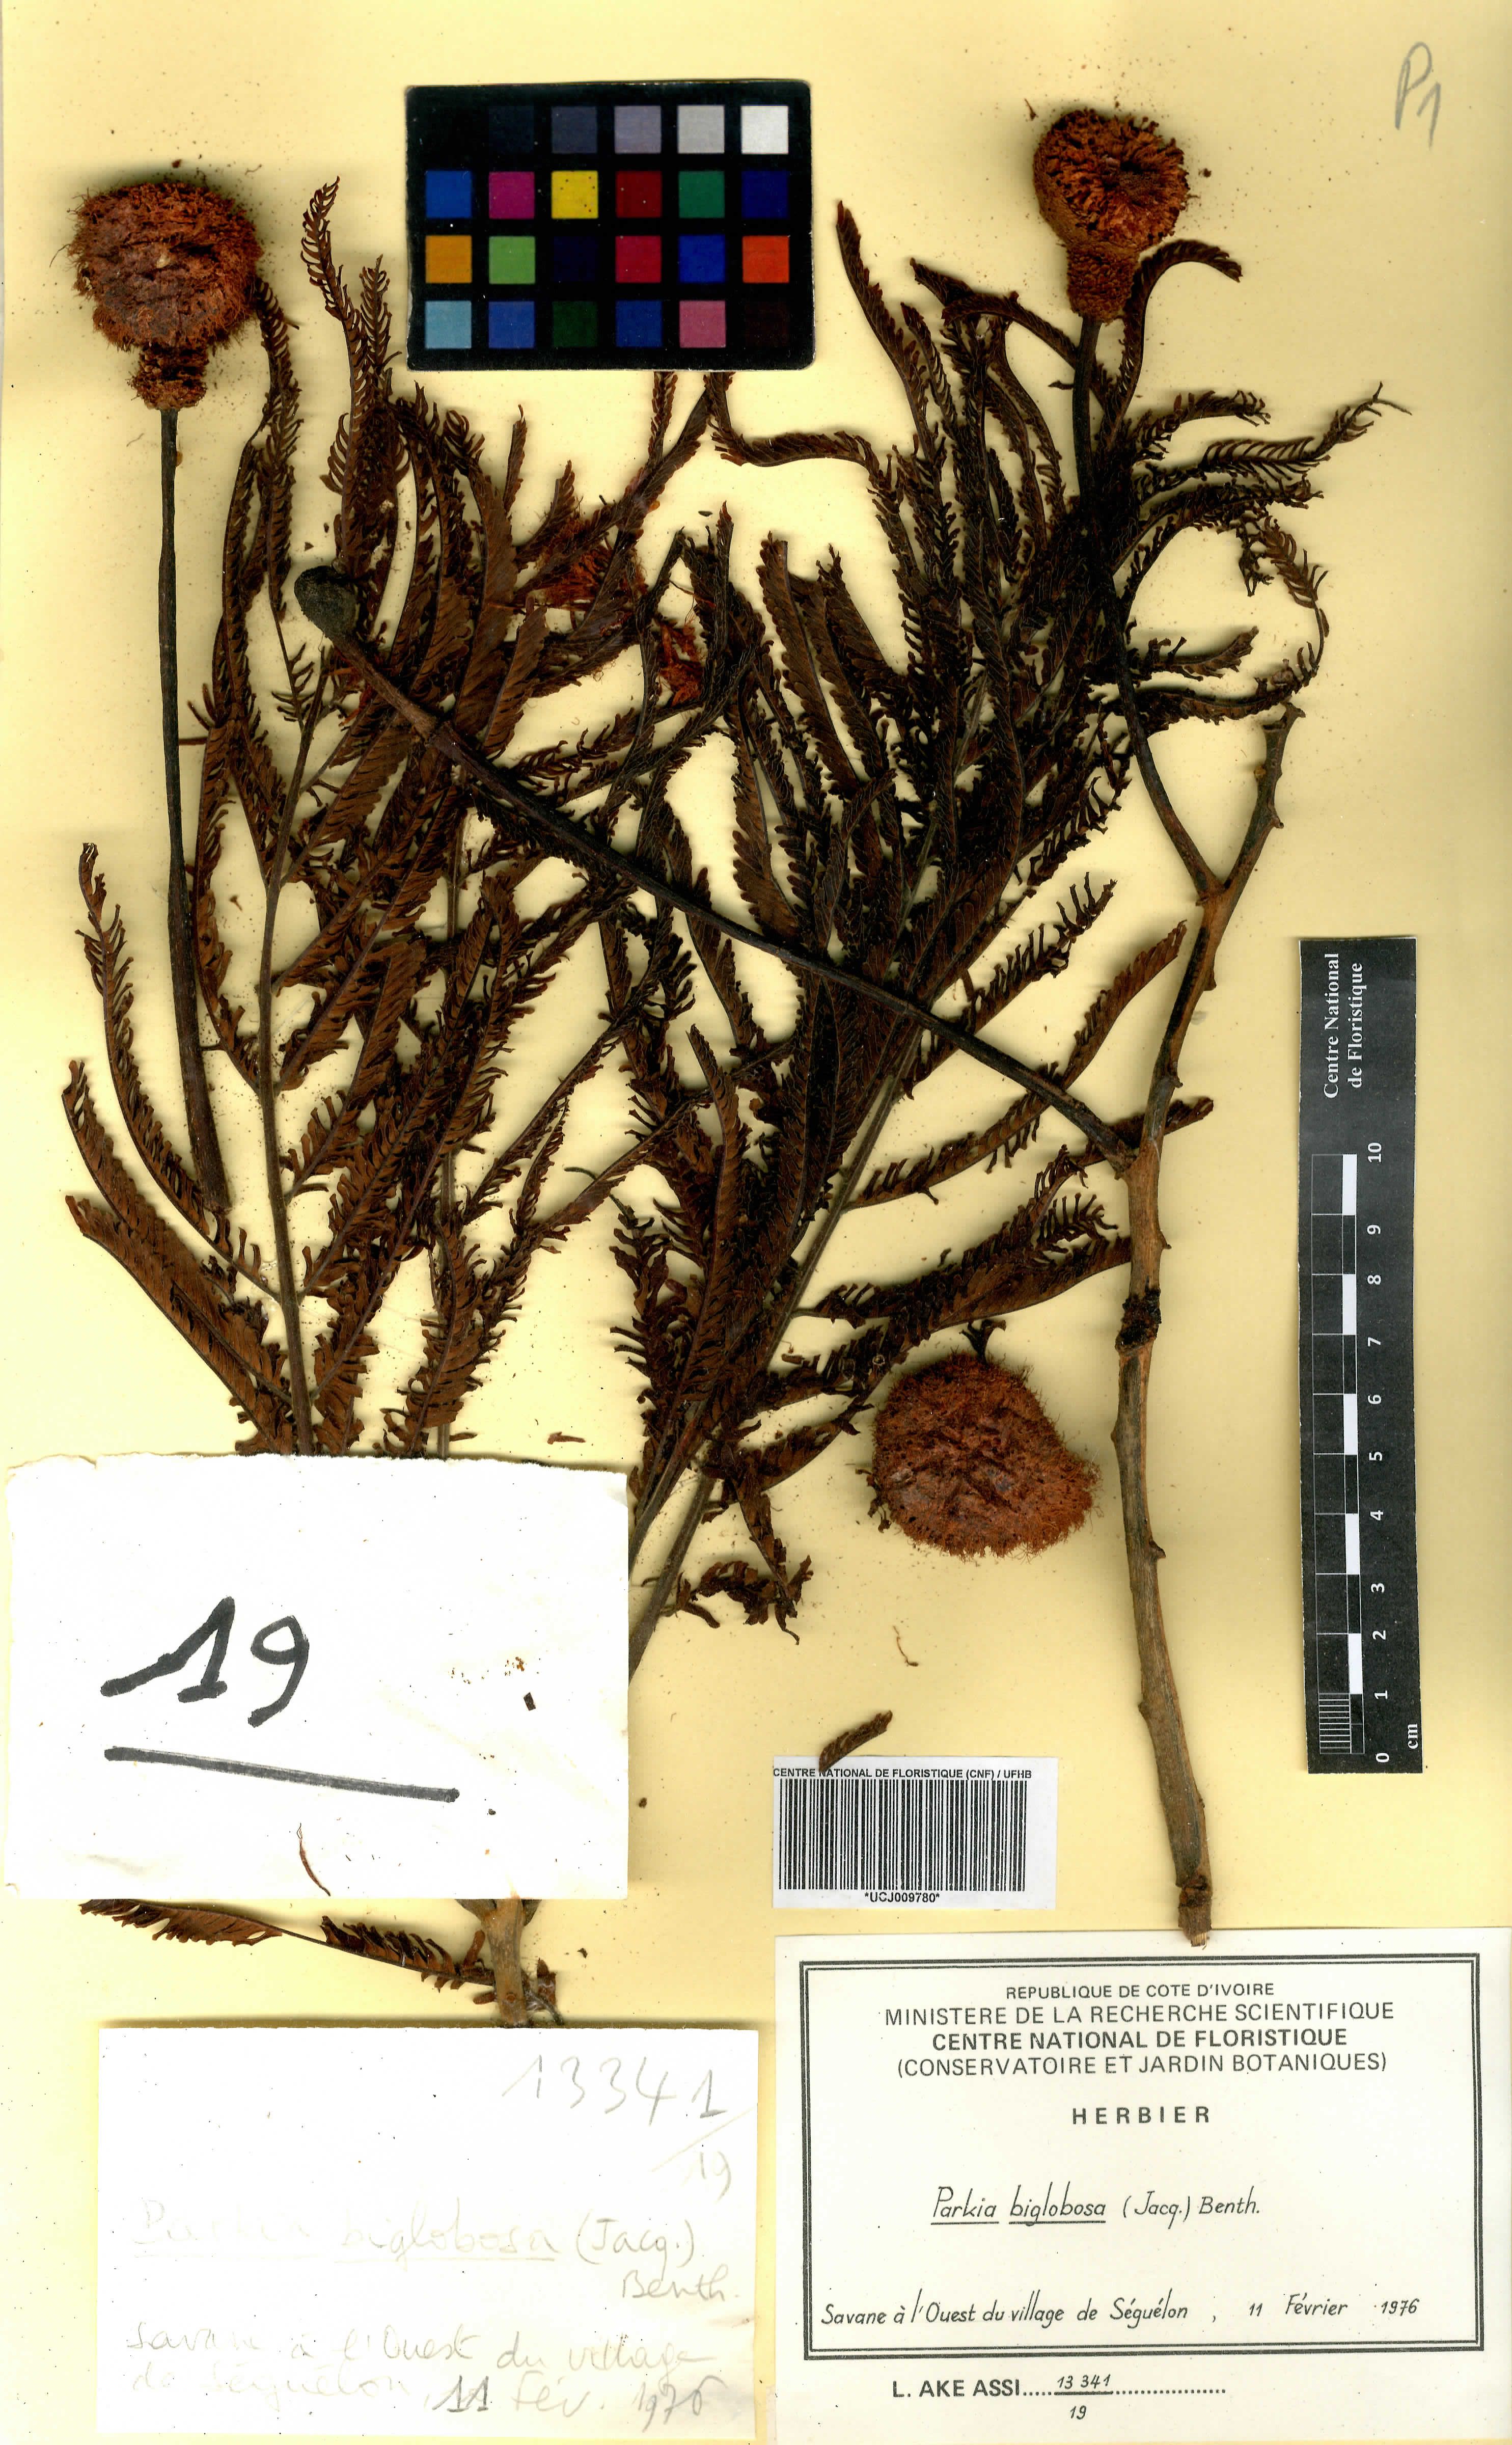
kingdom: Plantae
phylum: Tracheophyta
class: Magnoliopsida
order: Fabales
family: Fabaceae
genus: Parkia
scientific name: Parkia timoriana
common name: Legume
